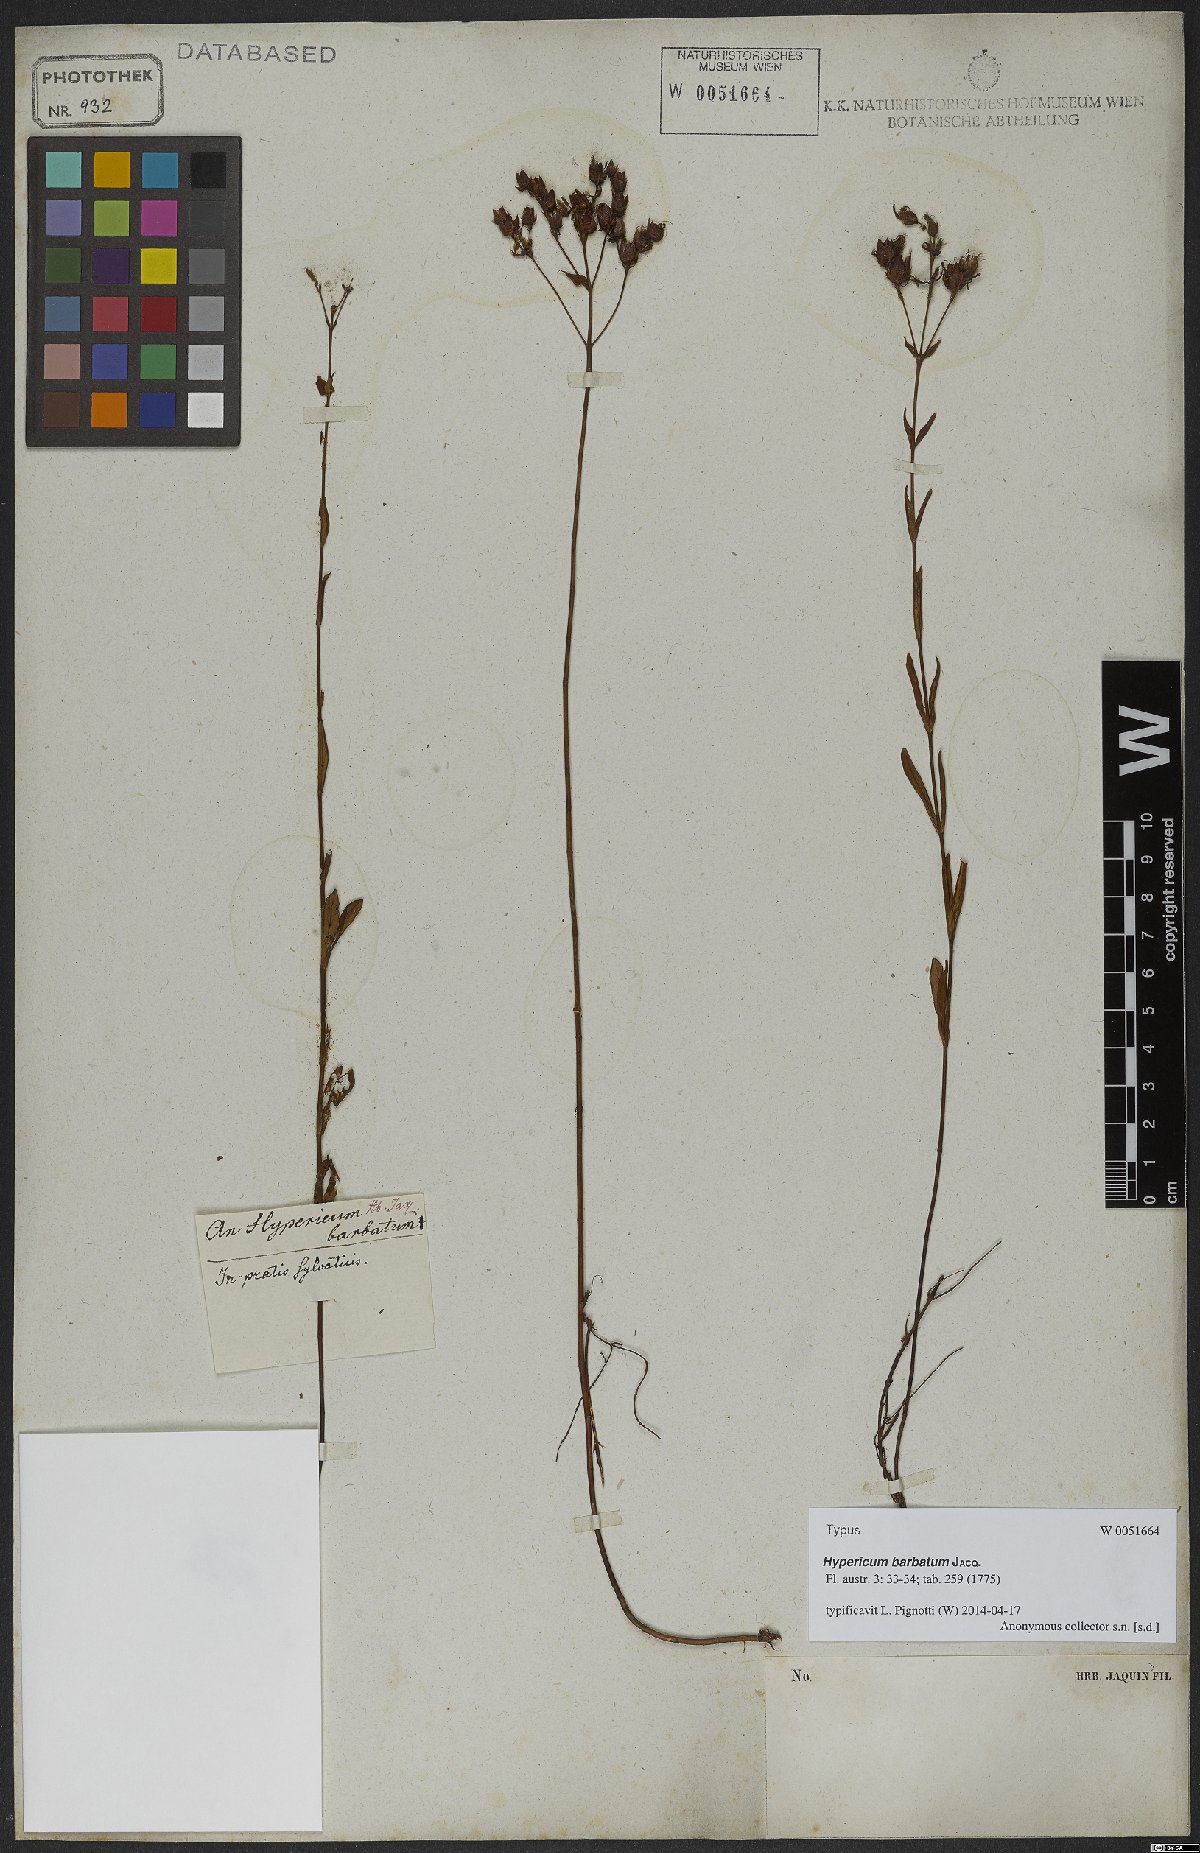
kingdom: Plantae
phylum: Tracheophyta
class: Magnoliopsida
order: Malpighiales
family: Hypericaceae
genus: Hypericum
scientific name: Hypericum barbatum
